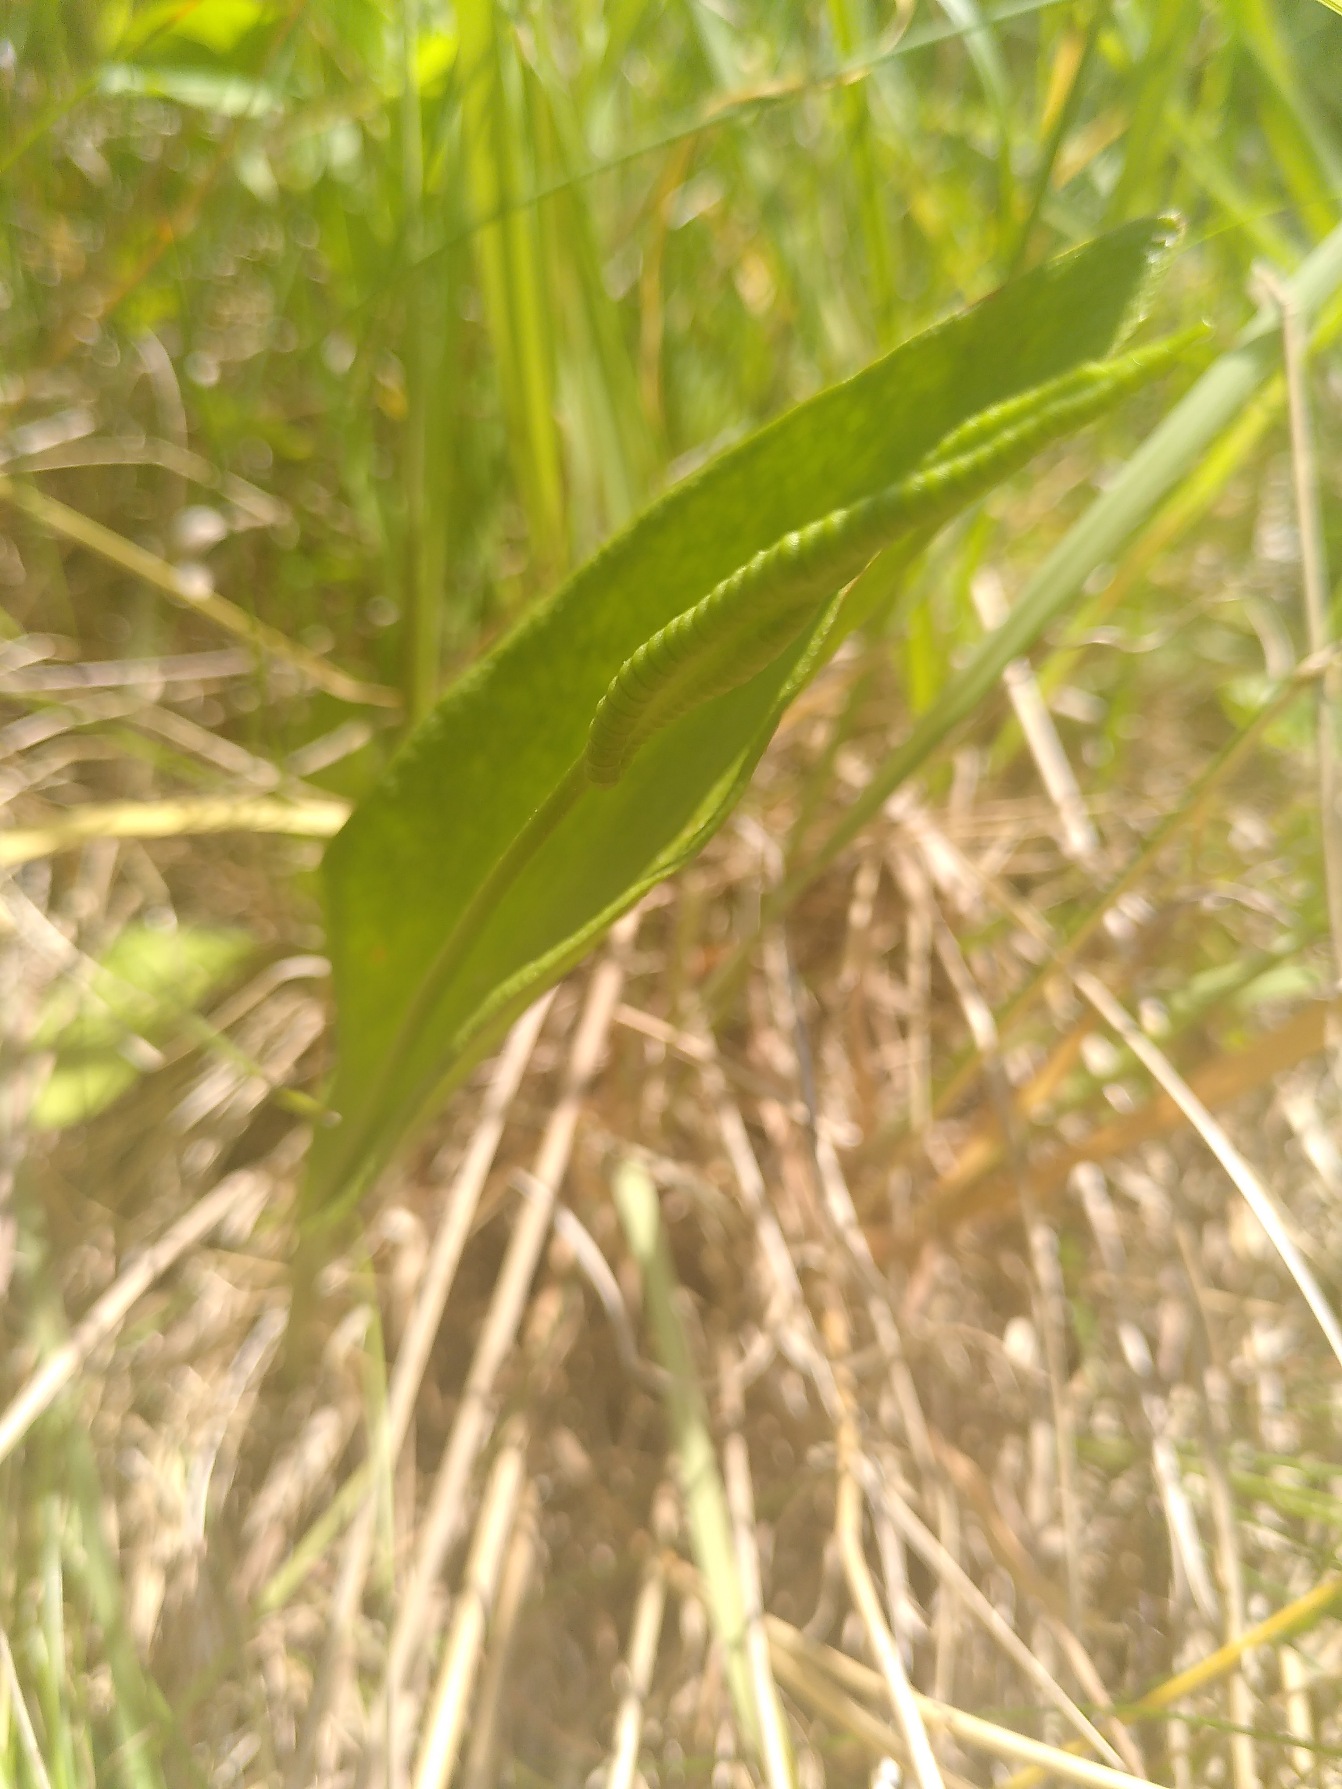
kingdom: Plantae
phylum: Tracheophyta
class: Polypodiopsida
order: Ophioglossales
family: Ophioglossaceae
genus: Ophioglossum
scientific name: Ophioglossum vulgatum
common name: Slangetunge
